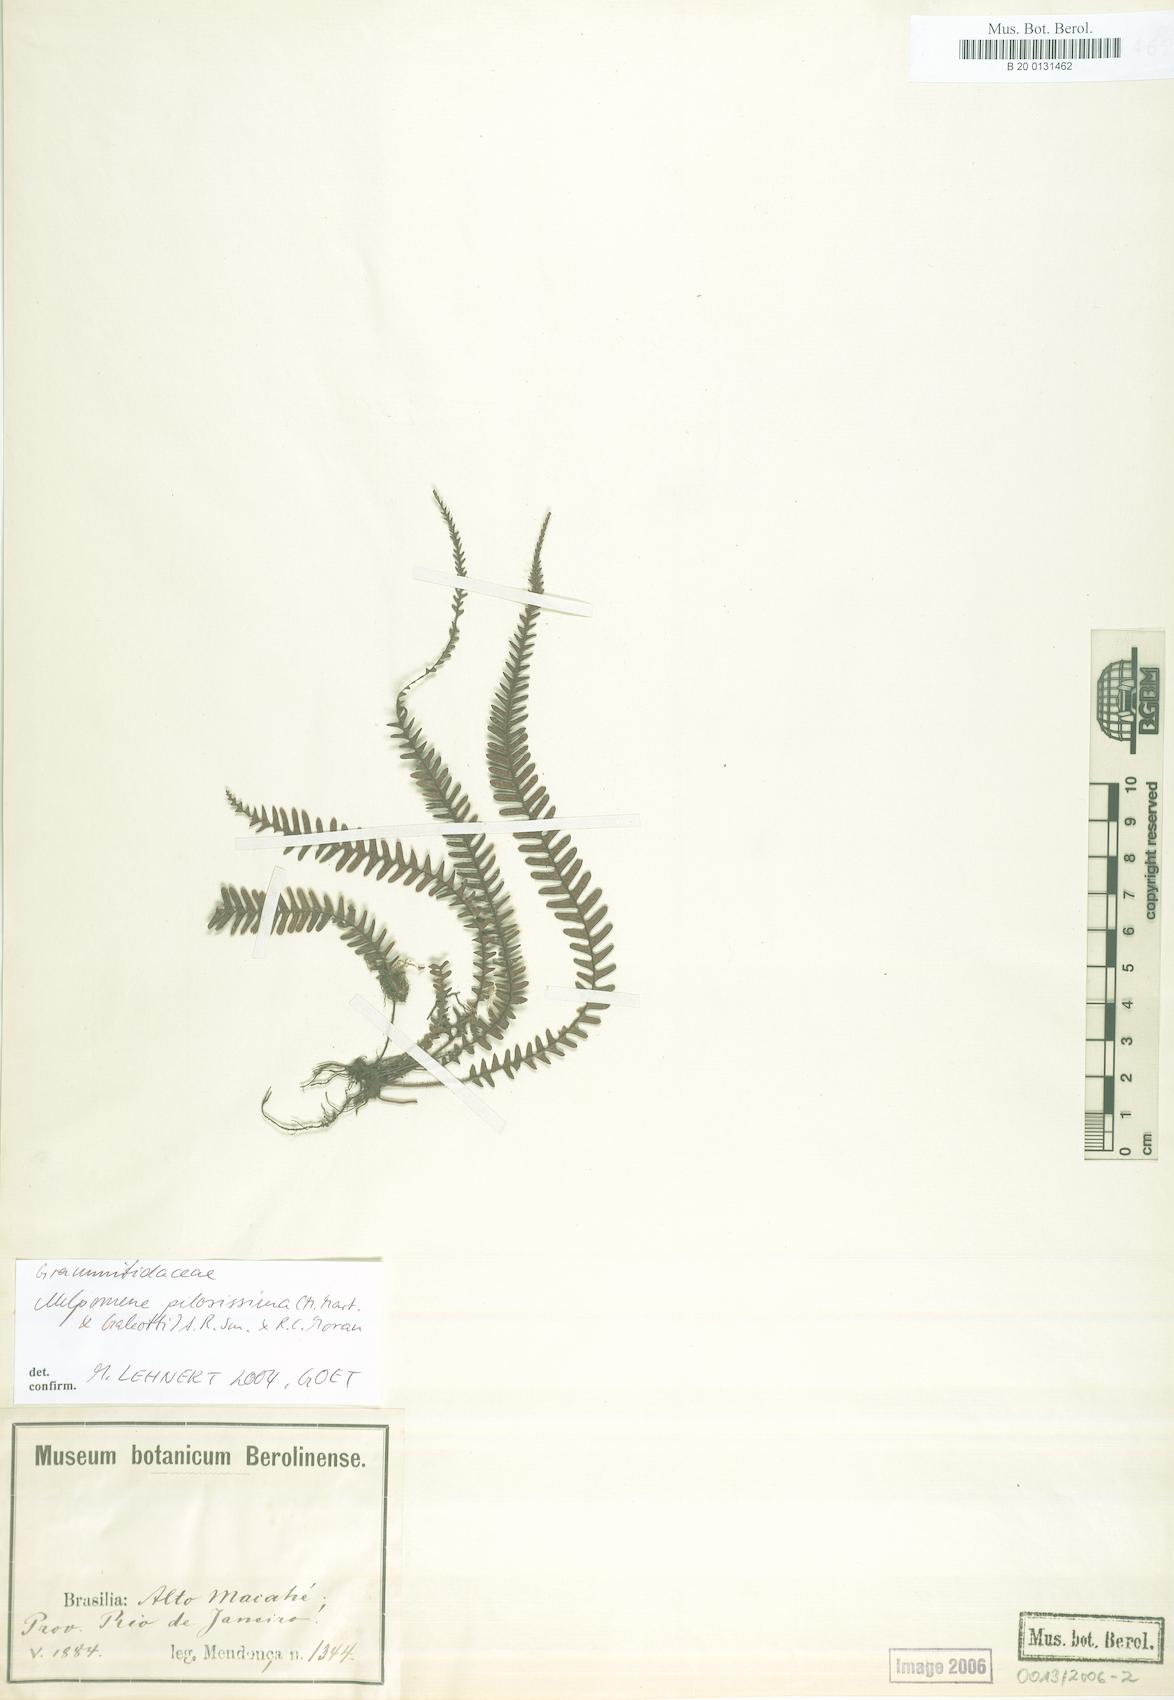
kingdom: Plantae
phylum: Tracheophyta
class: Polypodiopsida
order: Polypodiales
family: Polypodiaceae
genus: Melpomene
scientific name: Melpomene pilosissima
